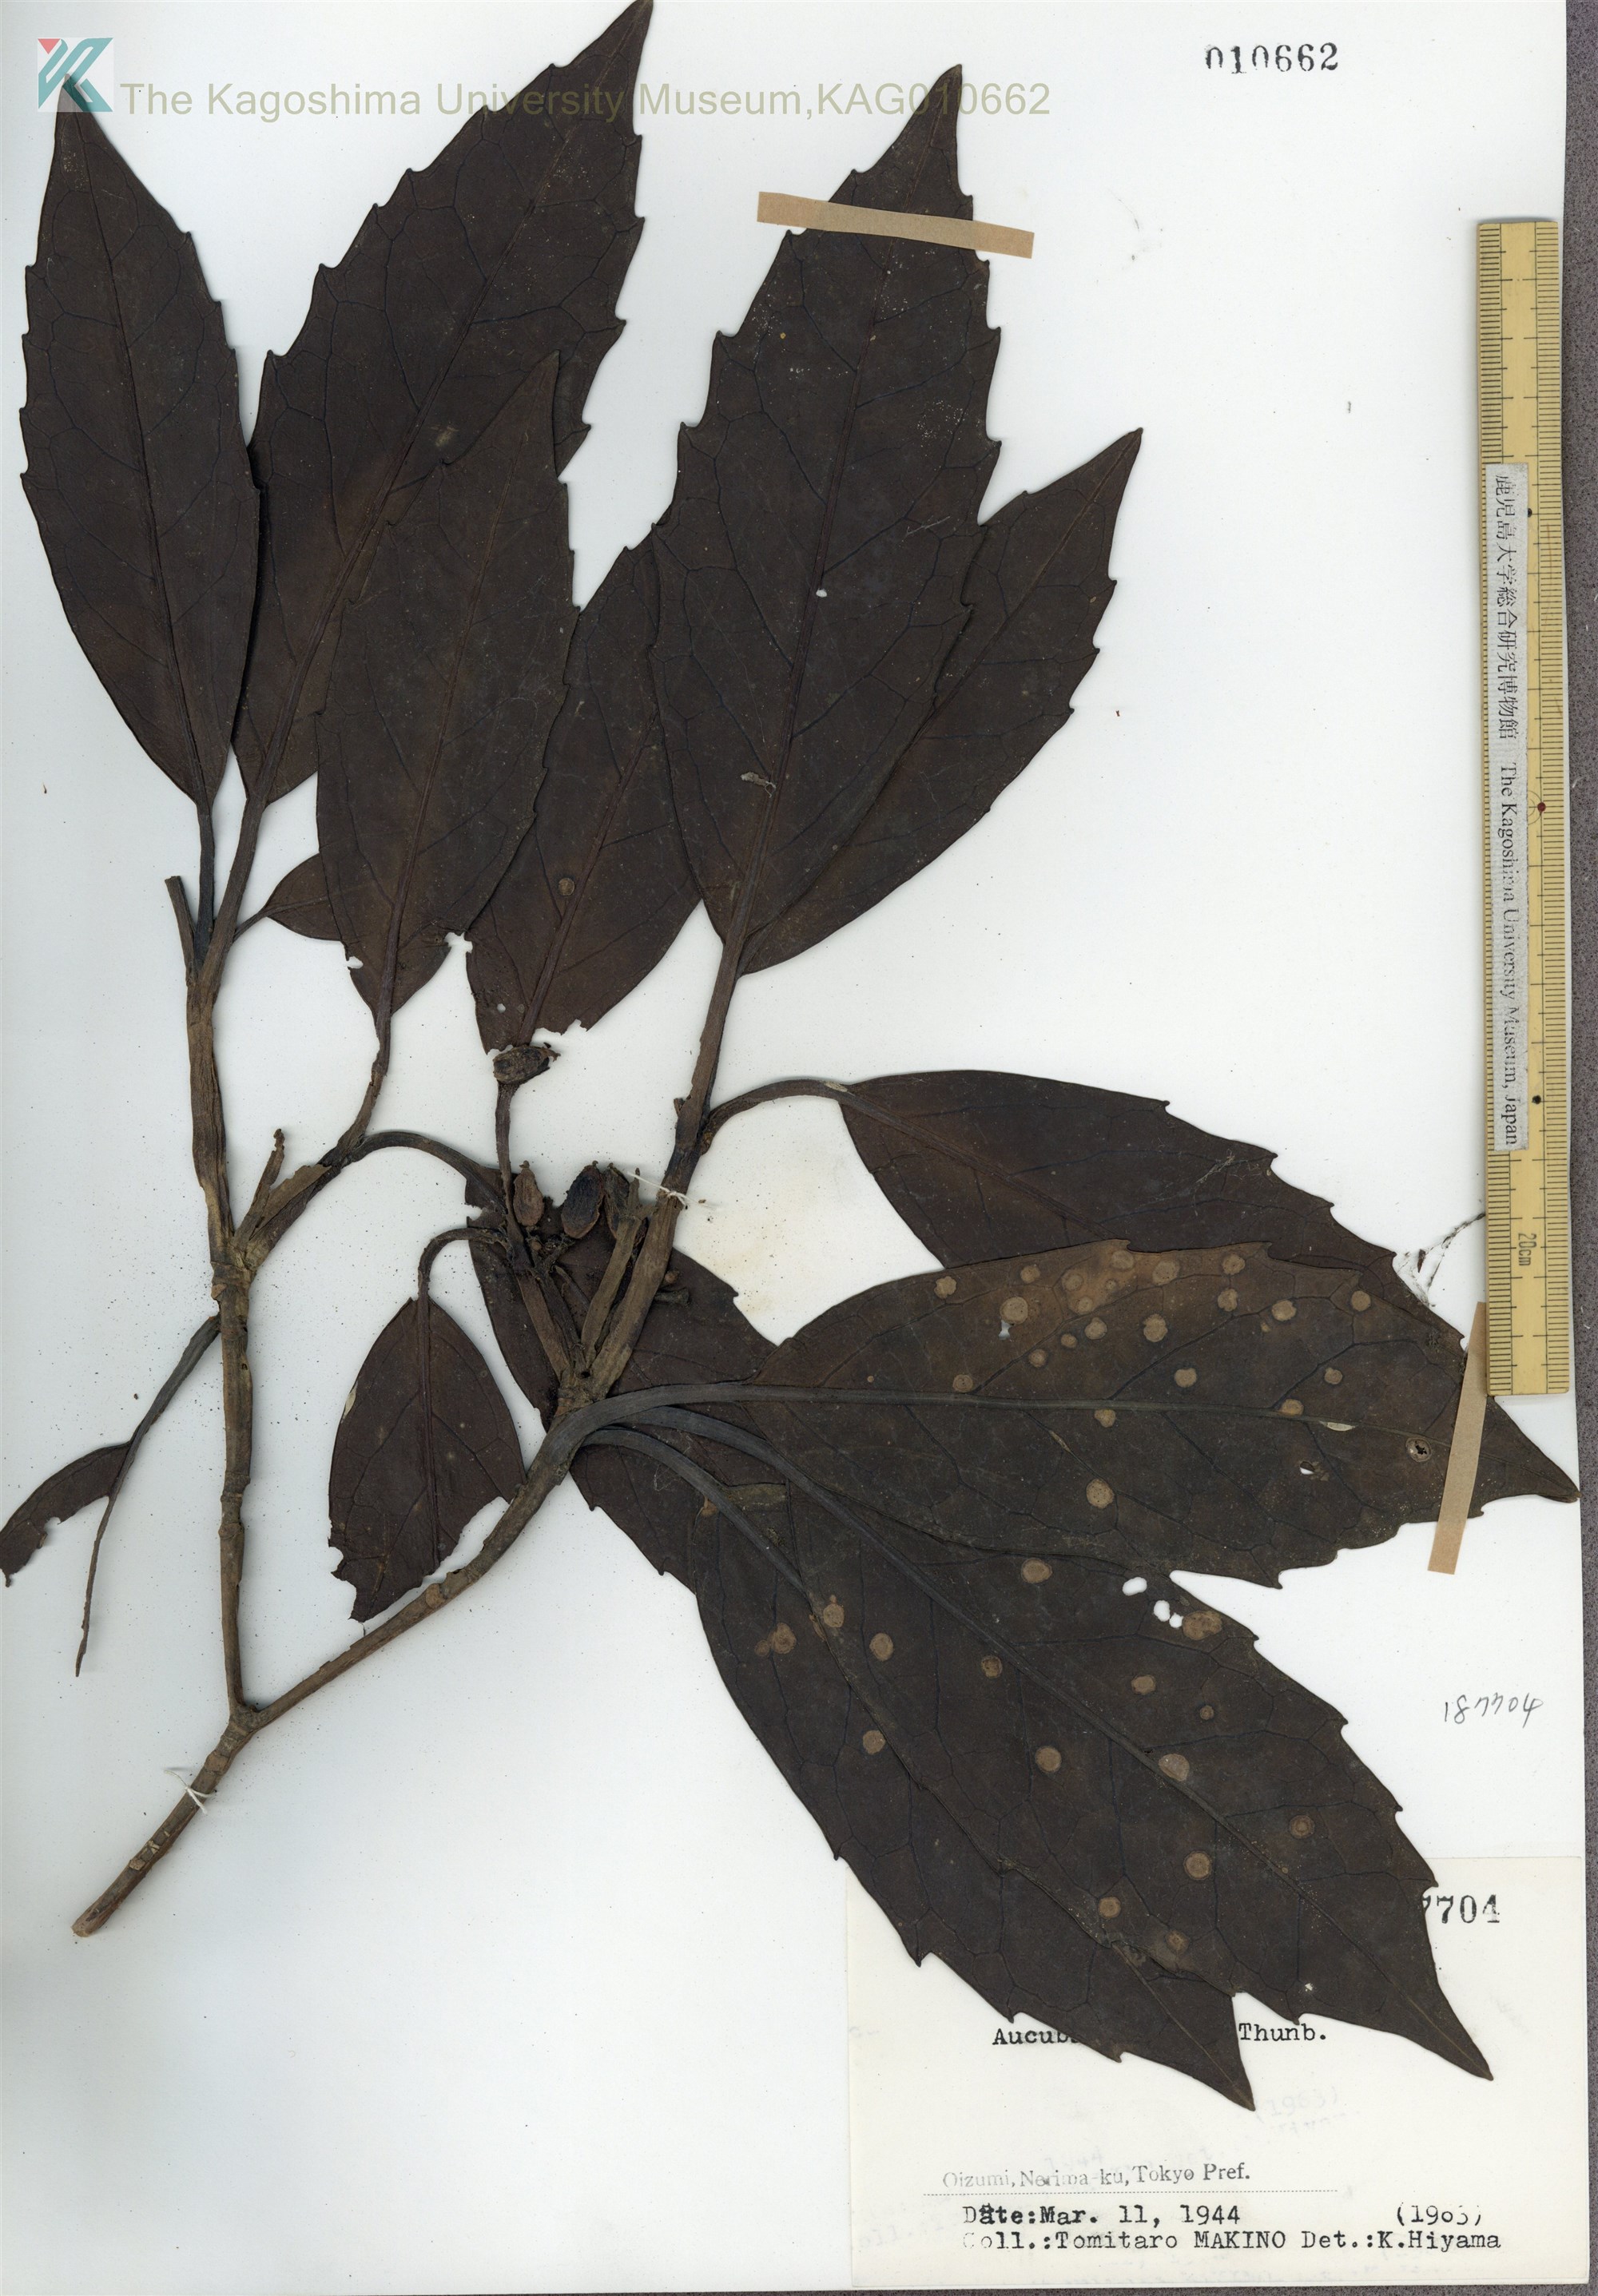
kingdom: Plantae
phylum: Tracheophyta
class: Magnoliopsida
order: Garryales
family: Garryaceae
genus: Aucuba
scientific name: Aucuba japonica
